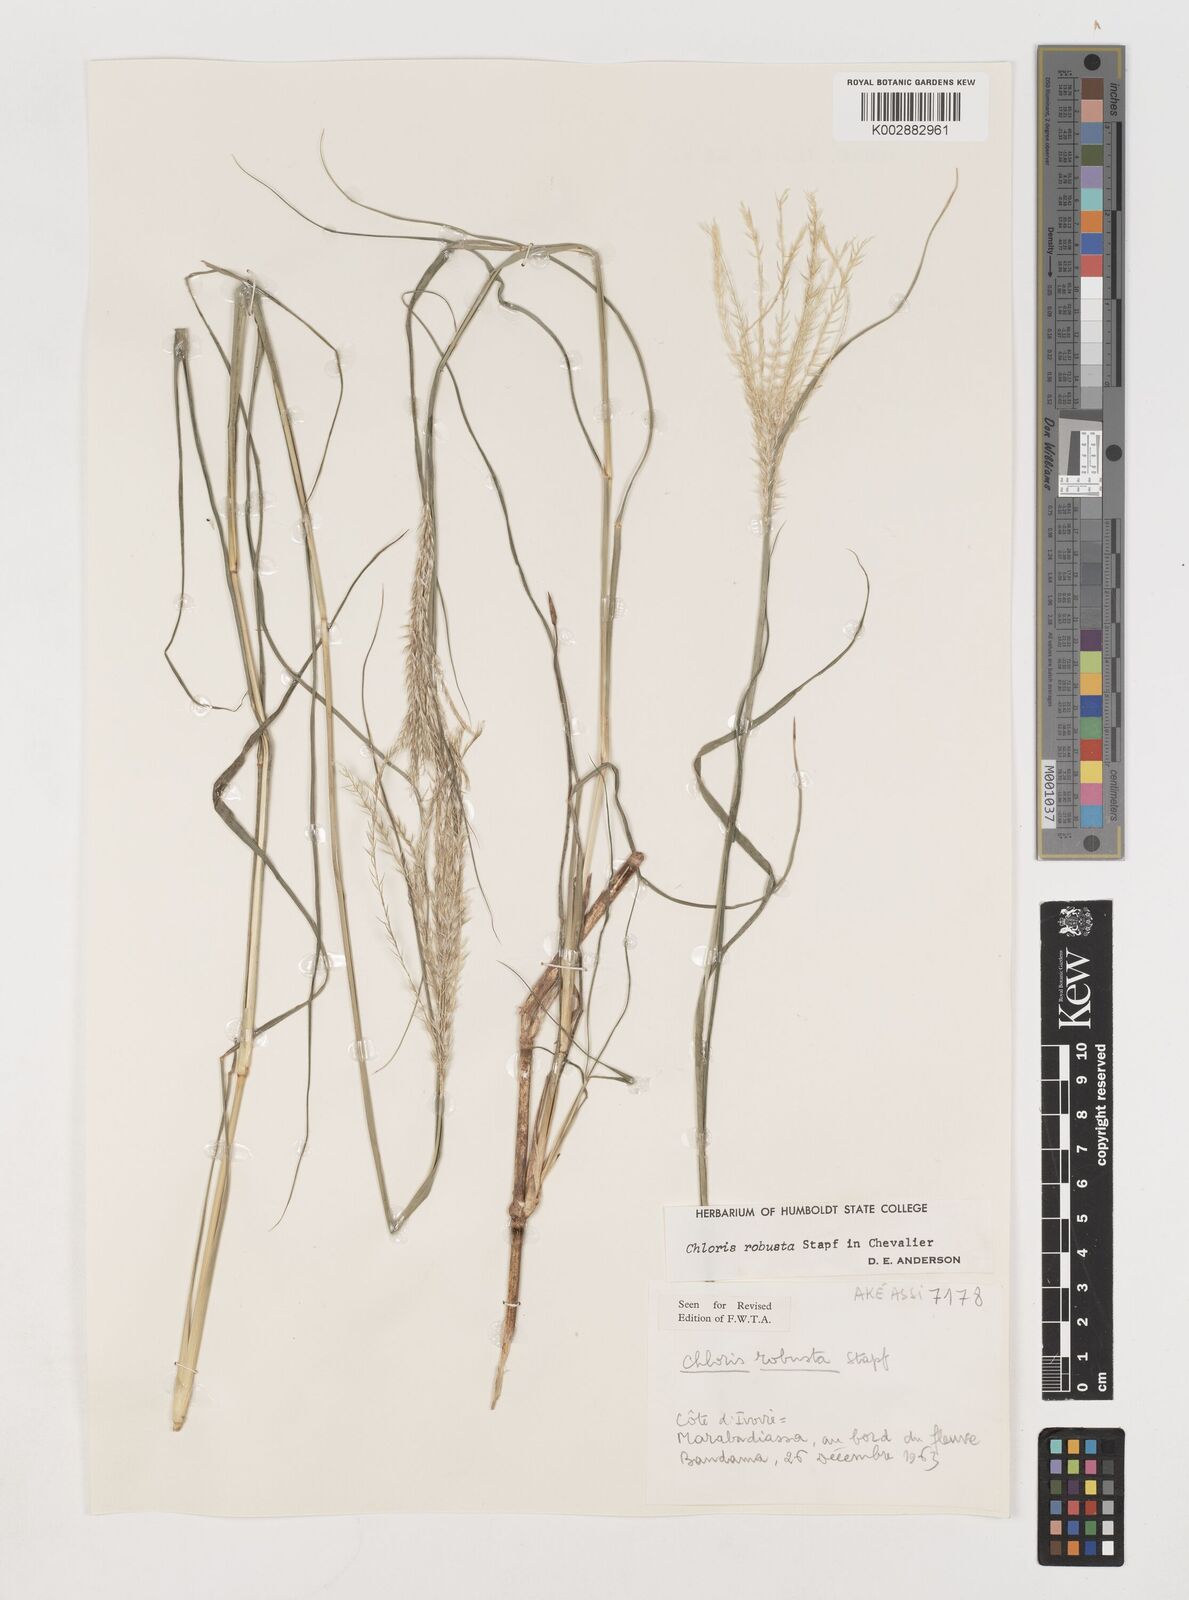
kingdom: Plantae
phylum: Tracheophyta
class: Liliopsida
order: Poales
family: Poaceae
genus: Chloris
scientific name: Chloris robusta
